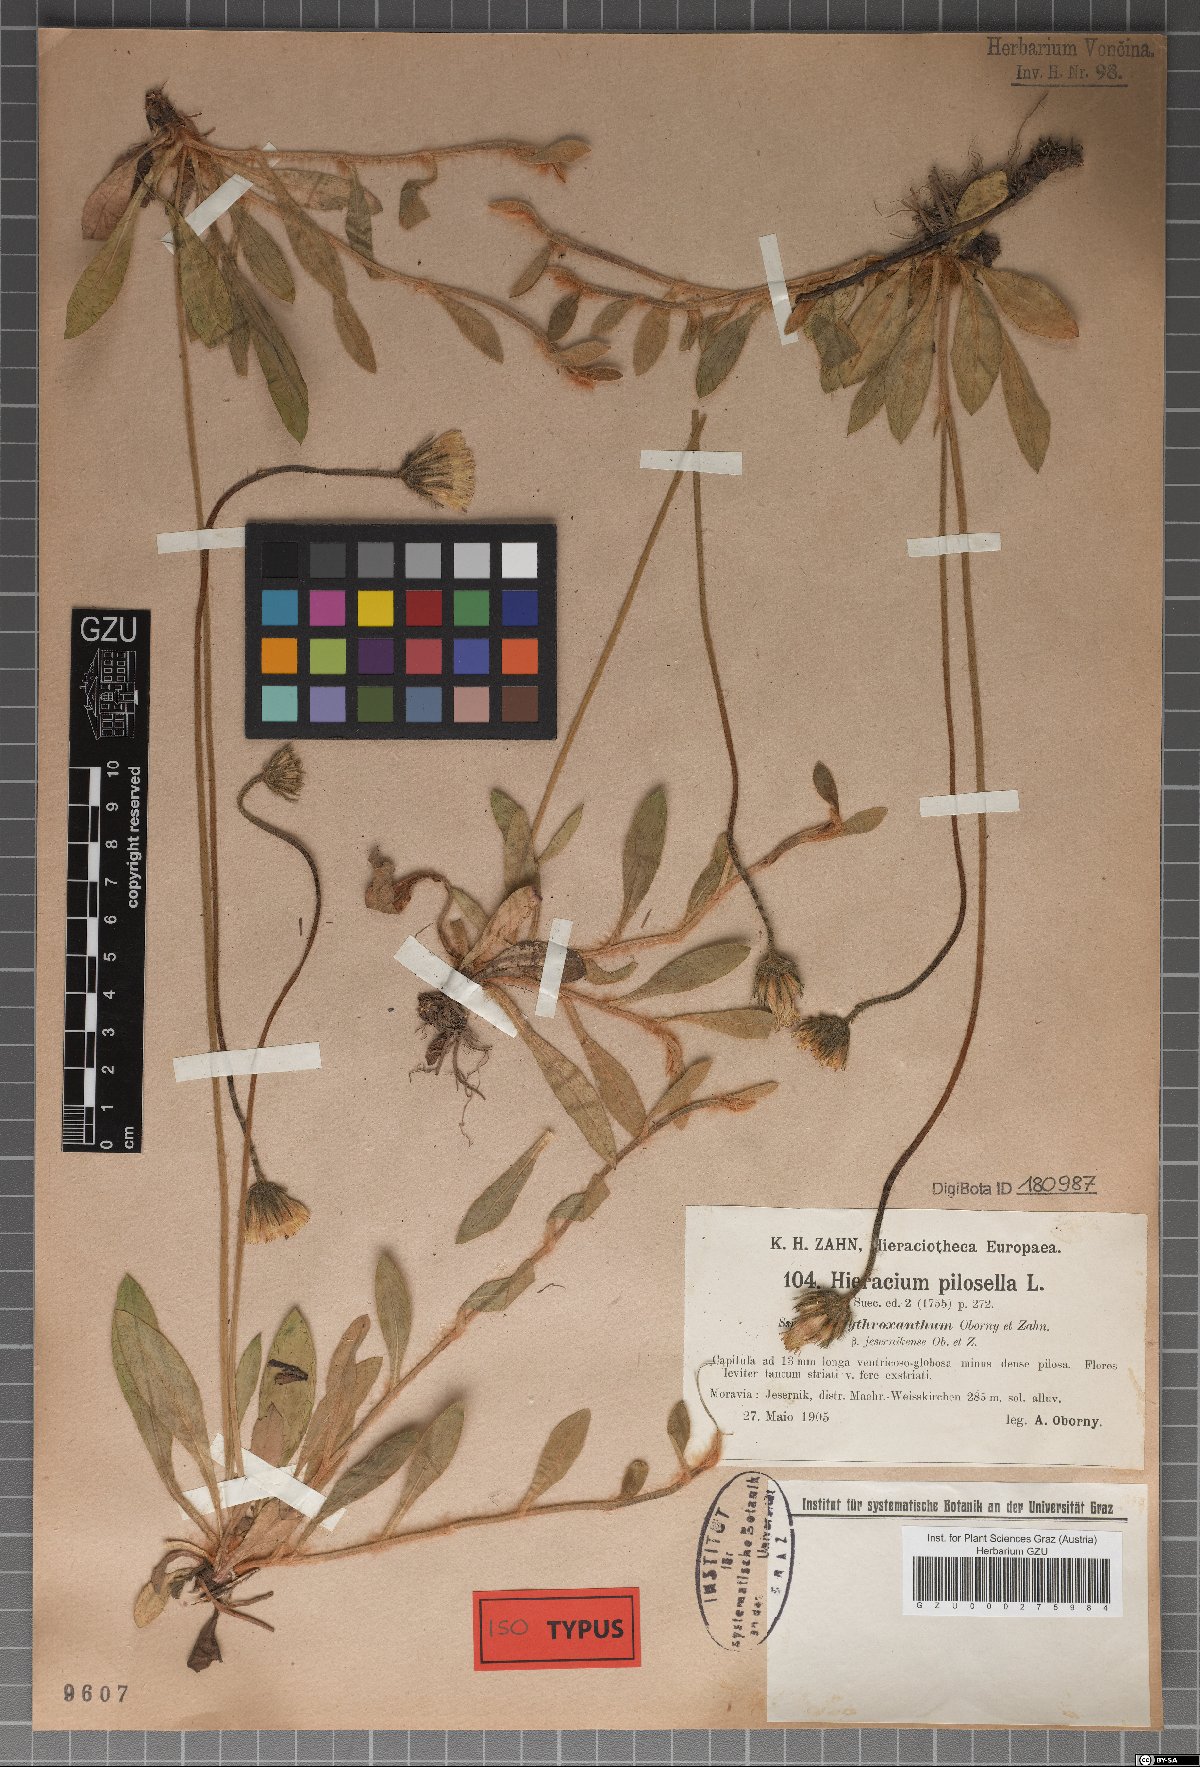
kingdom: Plantae
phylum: Tracheophyta
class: Magnoliopsida
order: Asterales
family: Asteraceae
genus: Pilosella
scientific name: Pilosella officinarum
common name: Mouse-ear hawkweed
